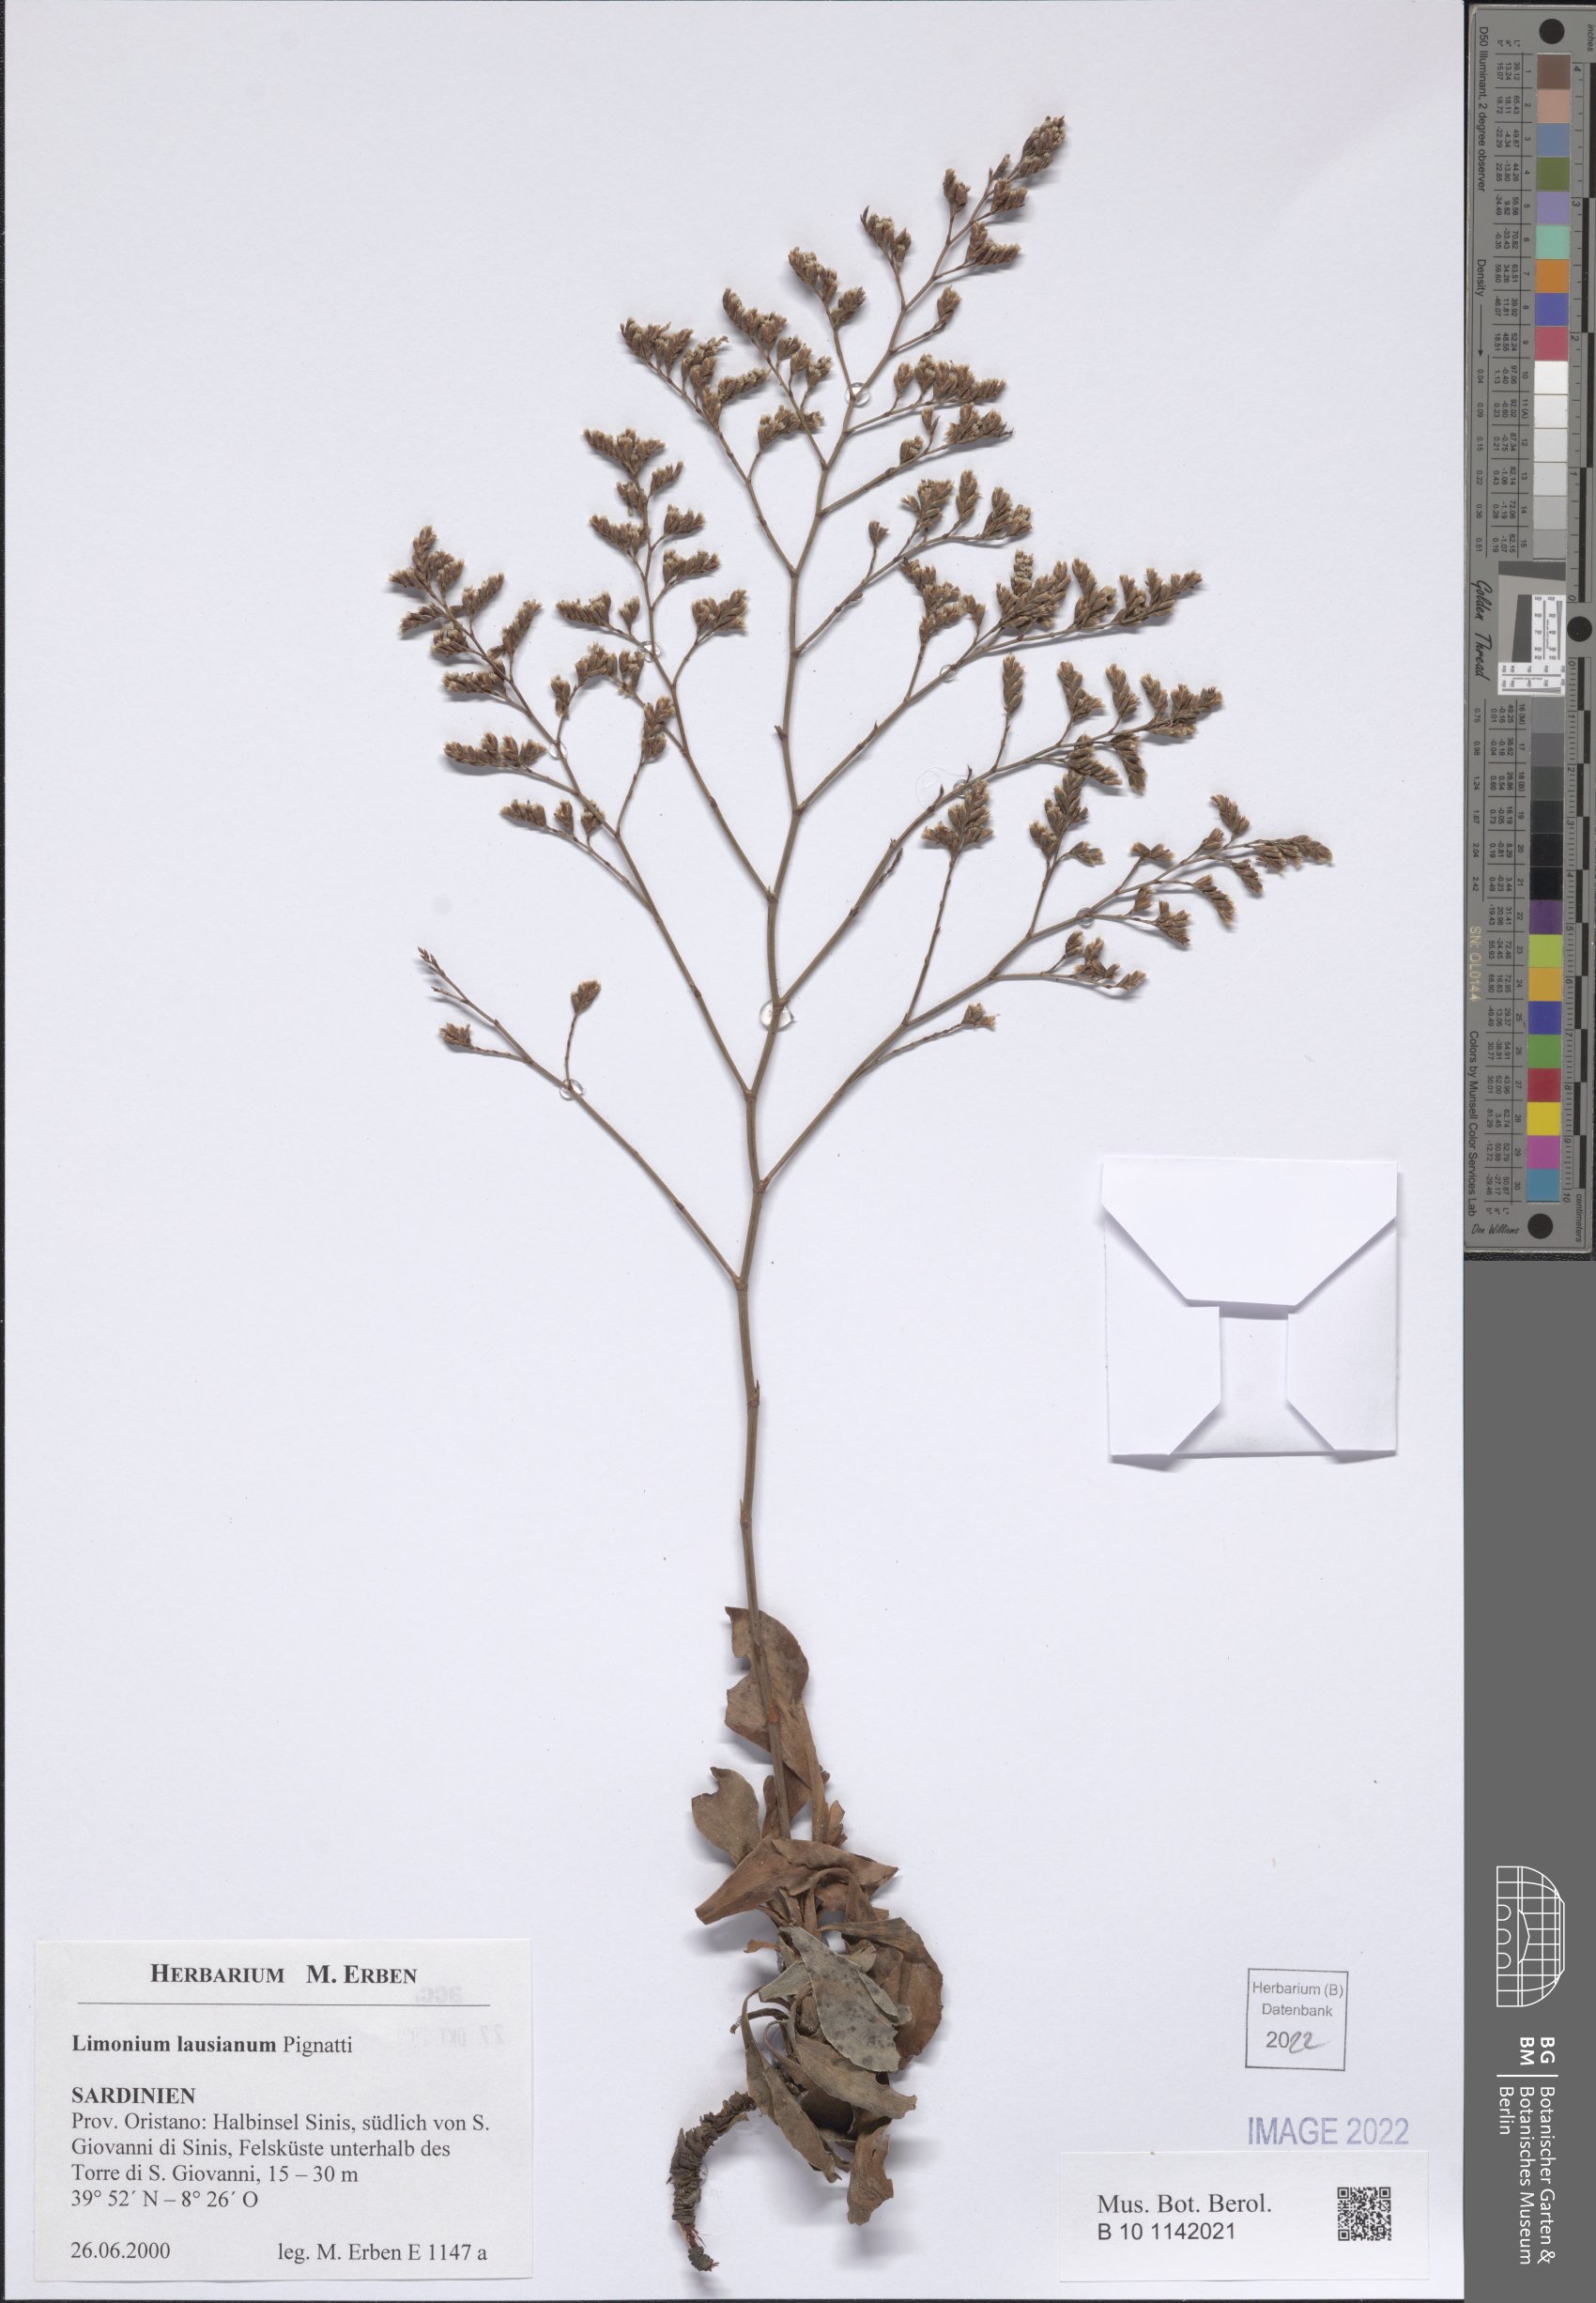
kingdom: Plantae
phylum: Tracheophyta
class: Magnoliopsida
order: Caryophyllales
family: Plumbaginaceae
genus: Limonium
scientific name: Limonium lausianum
